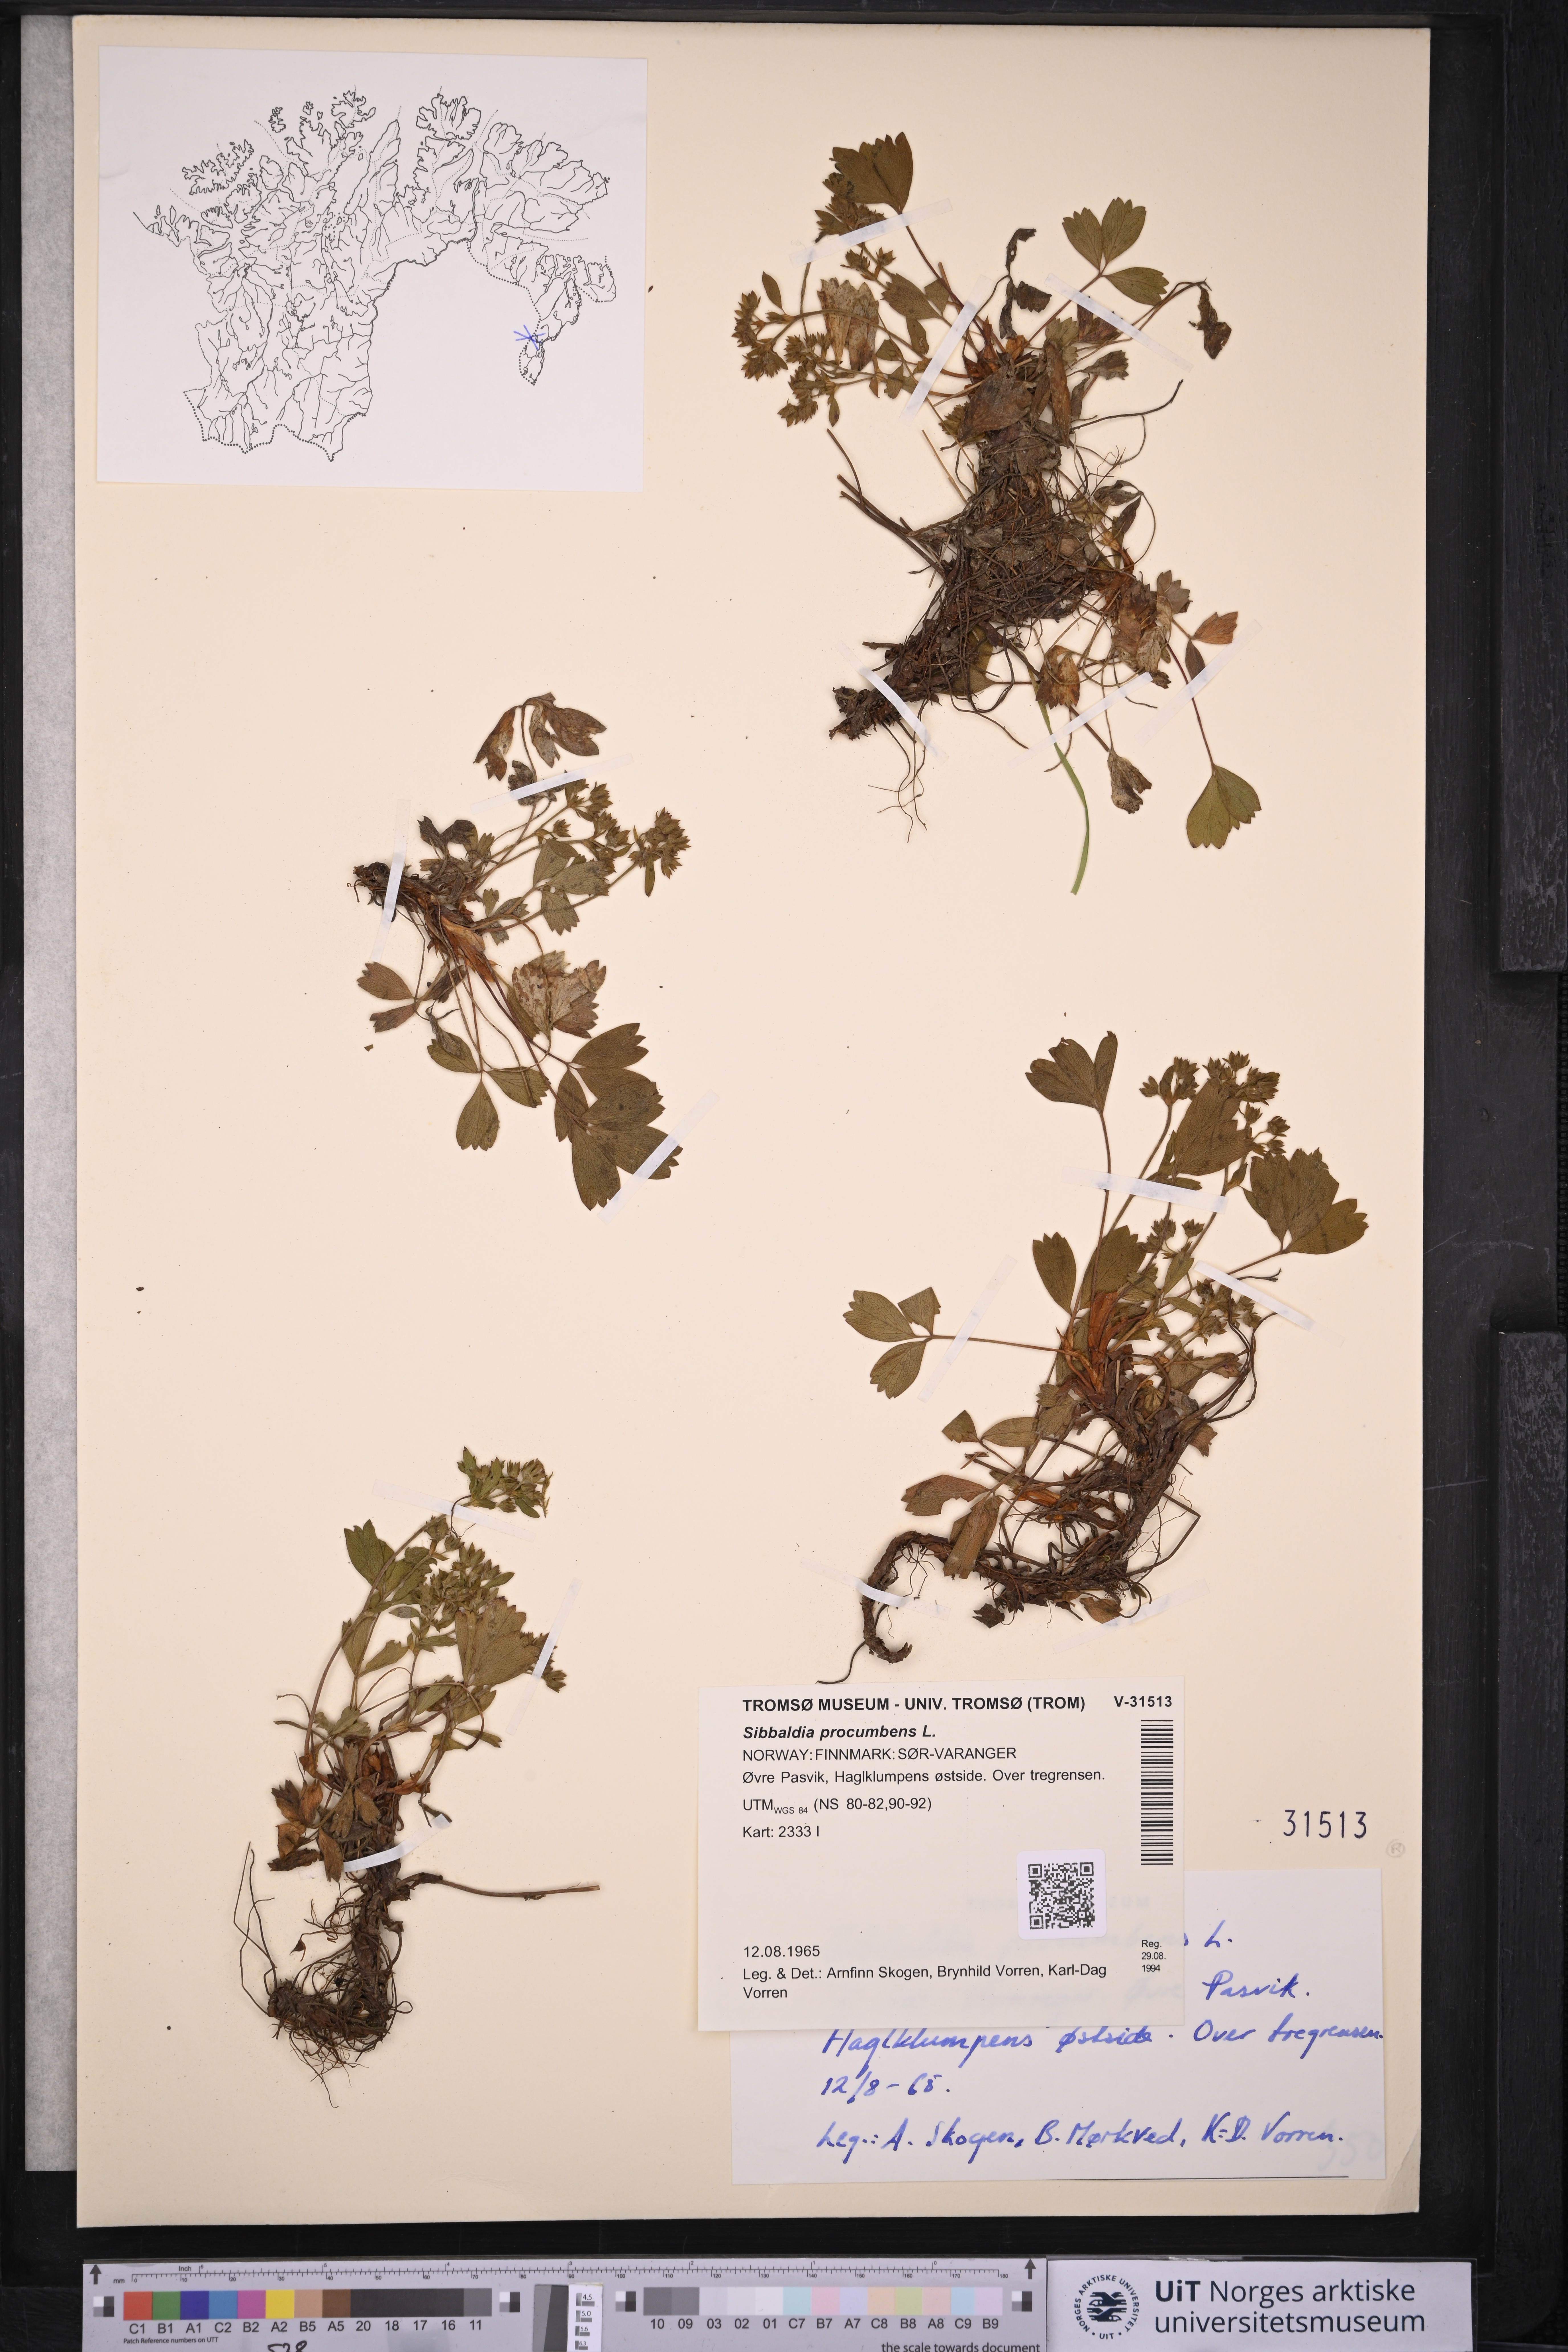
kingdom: Plantae
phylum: Tracheophyta
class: Magnoliopsida
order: Rosales
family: Rosaceae
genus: Sibbaldia
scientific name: Sibbaldia procumbens
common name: Creeping sibbaldia
